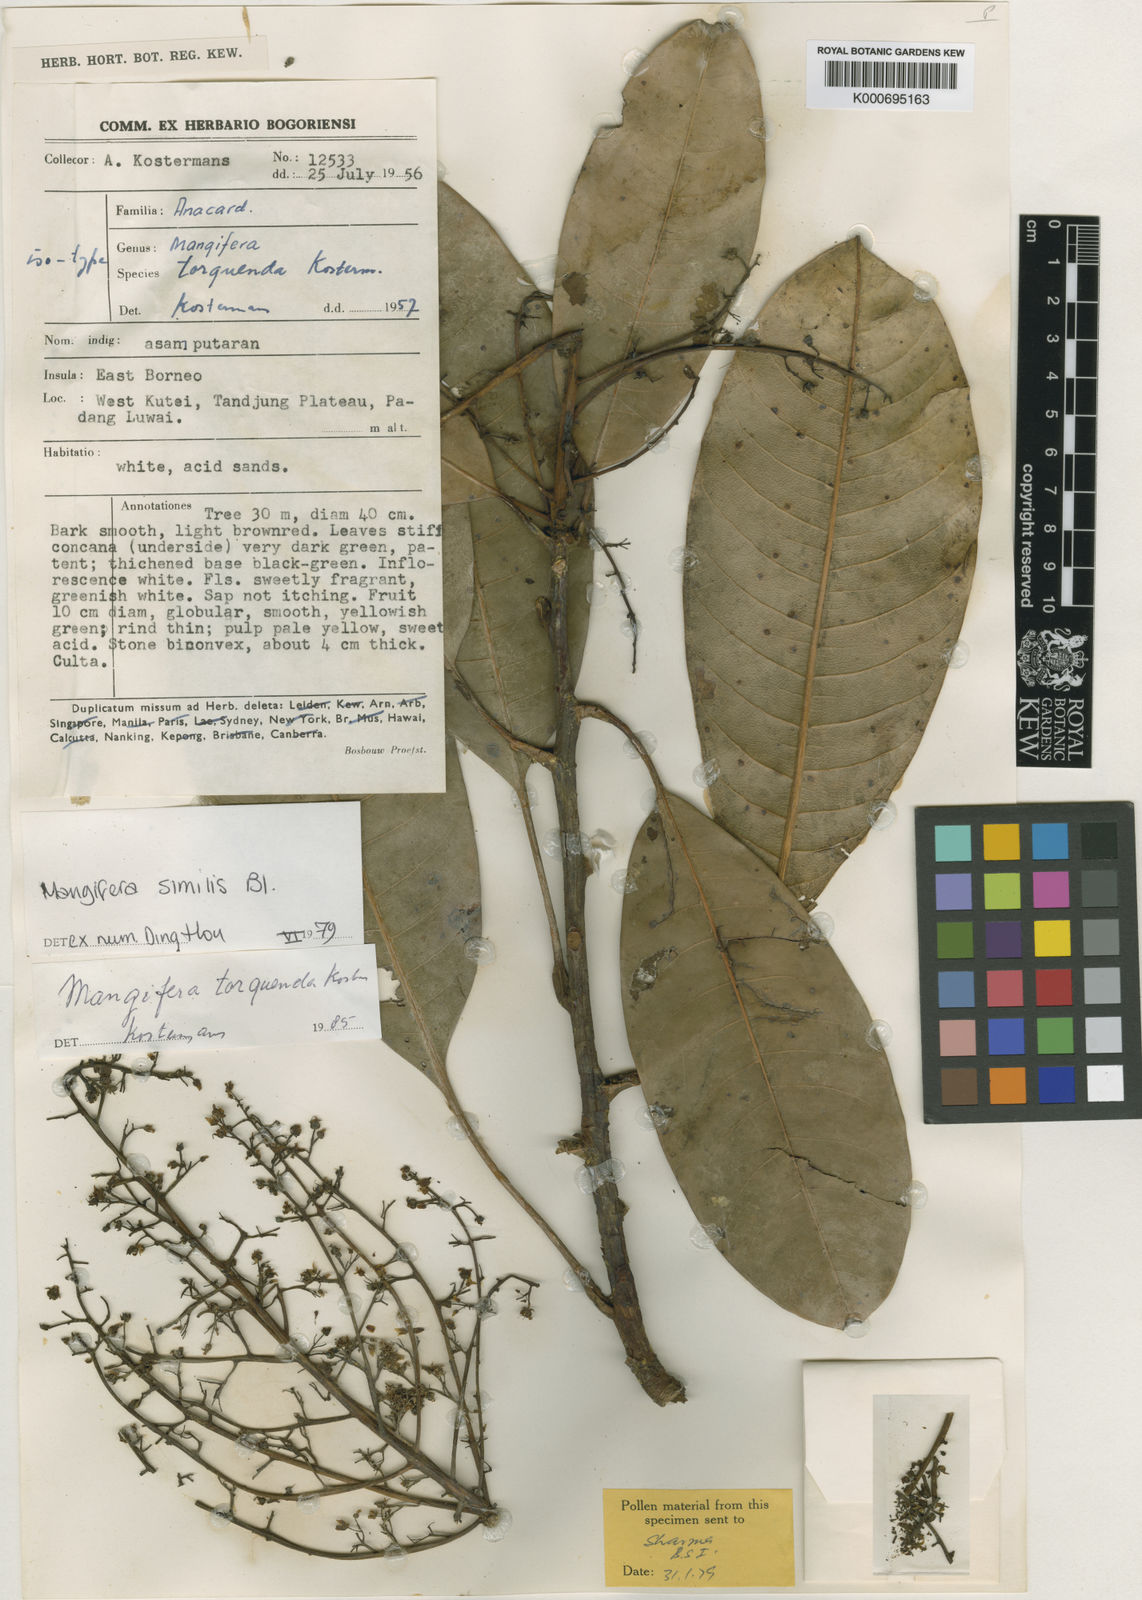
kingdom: Plantae
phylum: Tracheophyta
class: Magnoliopsida
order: Sapindales
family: Anacardiaceae
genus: Mangifera
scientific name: Mangifera similis
